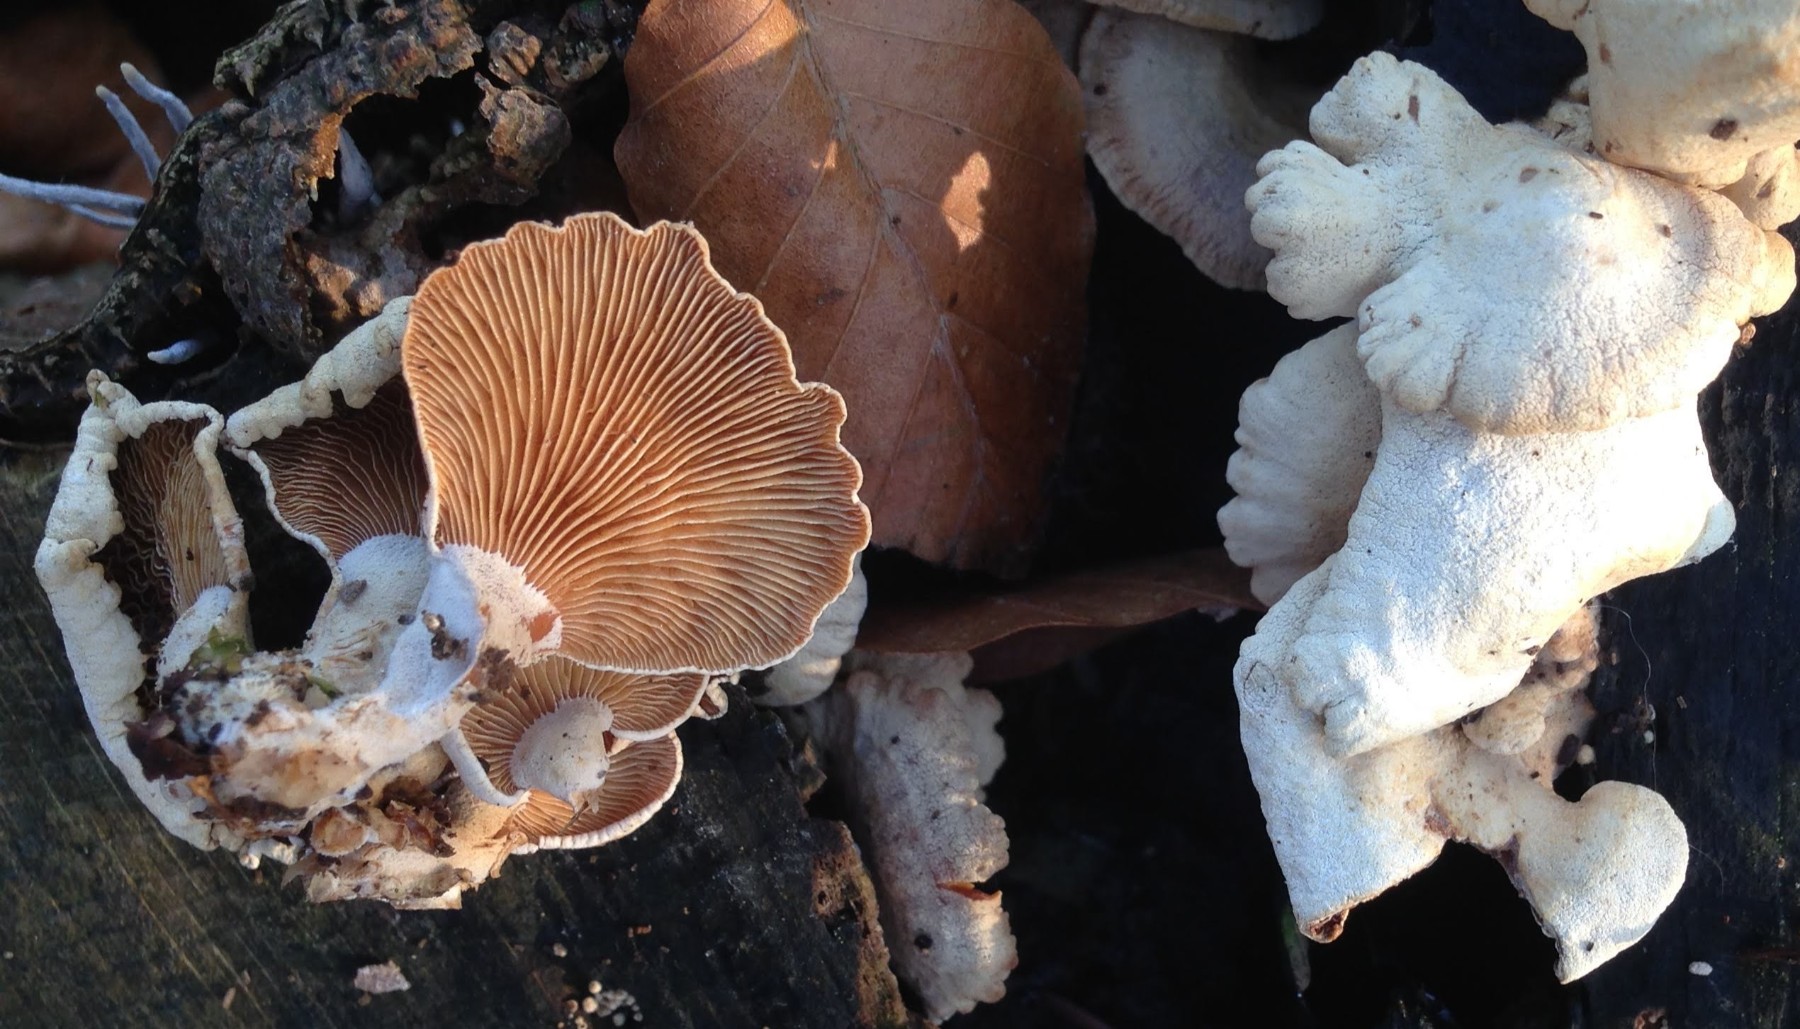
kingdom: Fungi
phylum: Basidiomycota
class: Agaricomycetes
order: Agaricales
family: Mycenaceae
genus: Panellus
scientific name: Panellus stipticus
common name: kliddet epaulethat
